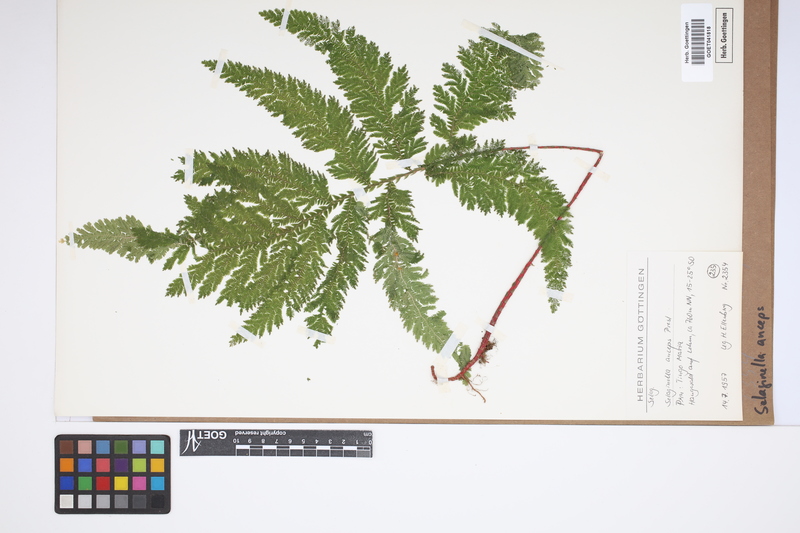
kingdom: Plantae
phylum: Tracheophyta
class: Lycopodiopsida
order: Selaginellales
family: Selaginellaceae
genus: Selaginella
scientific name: Selaginella anceps
